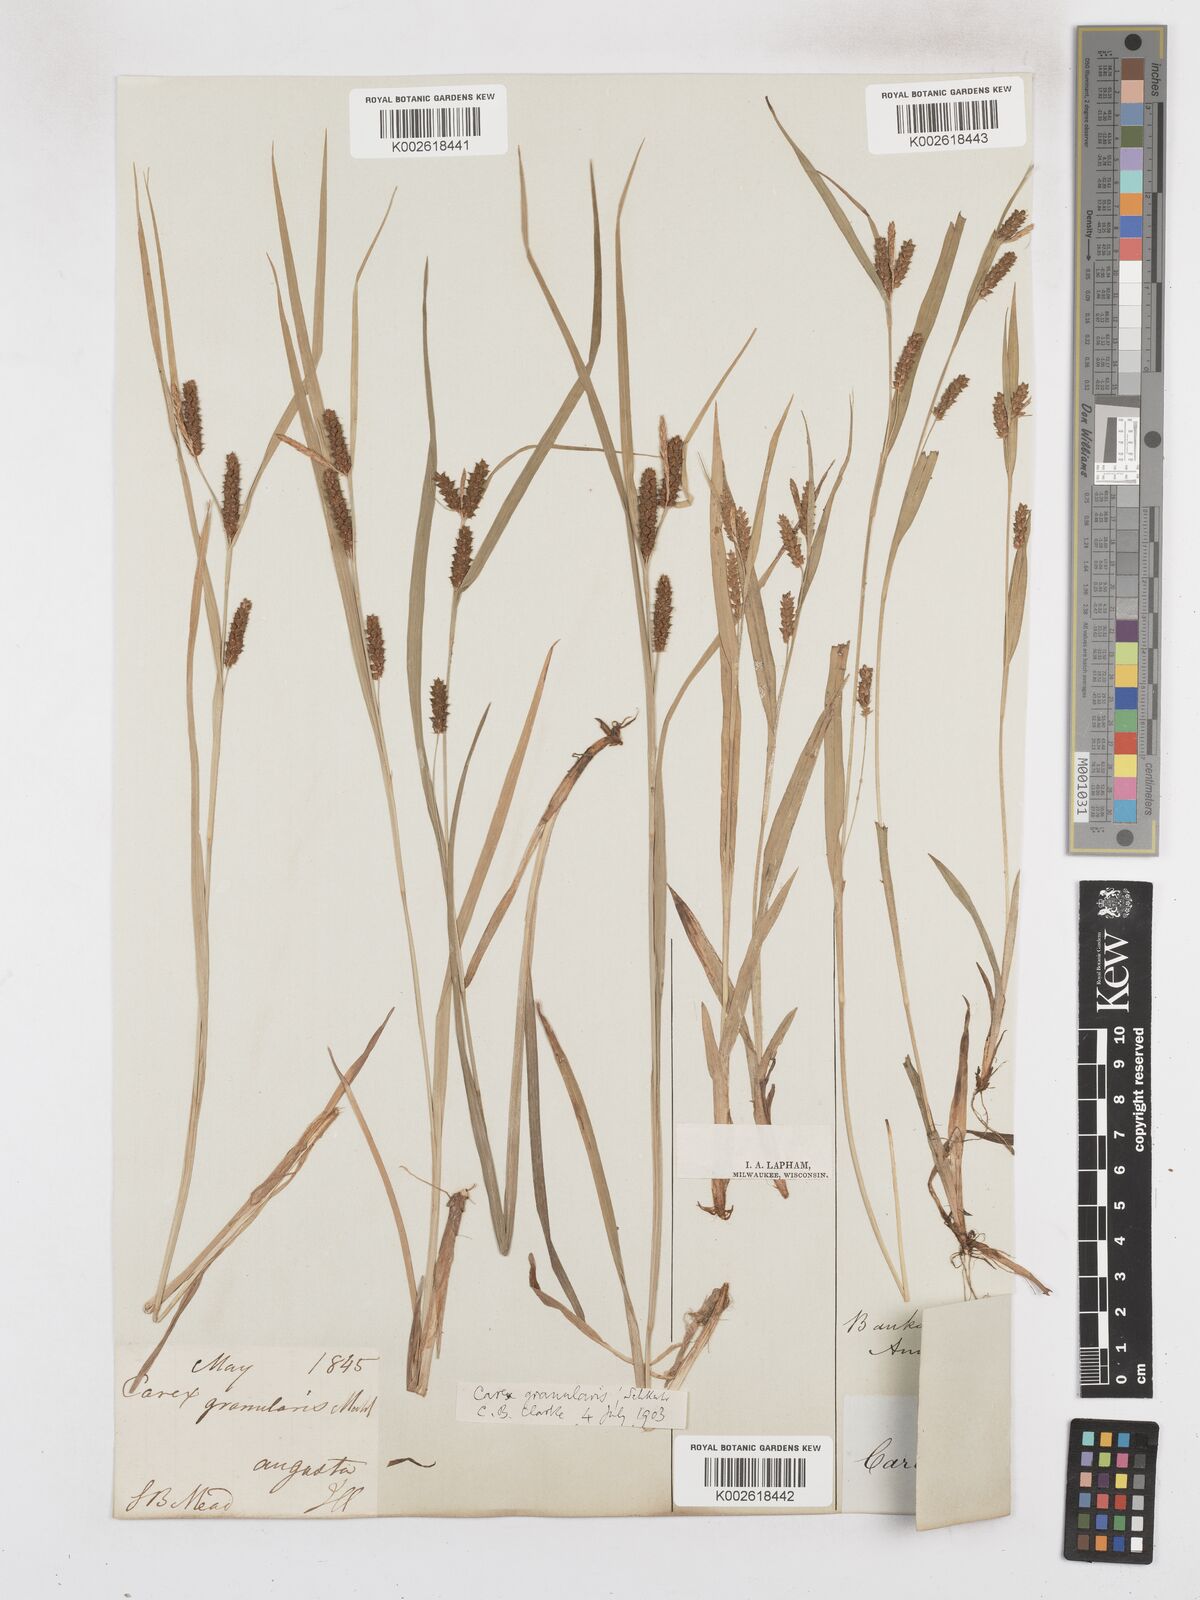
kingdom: Plantae
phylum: Tracheophyta
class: Liliopsida
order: Poales
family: Cyperaceae
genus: Carex
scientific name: Carex livida
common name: Livid sedge
